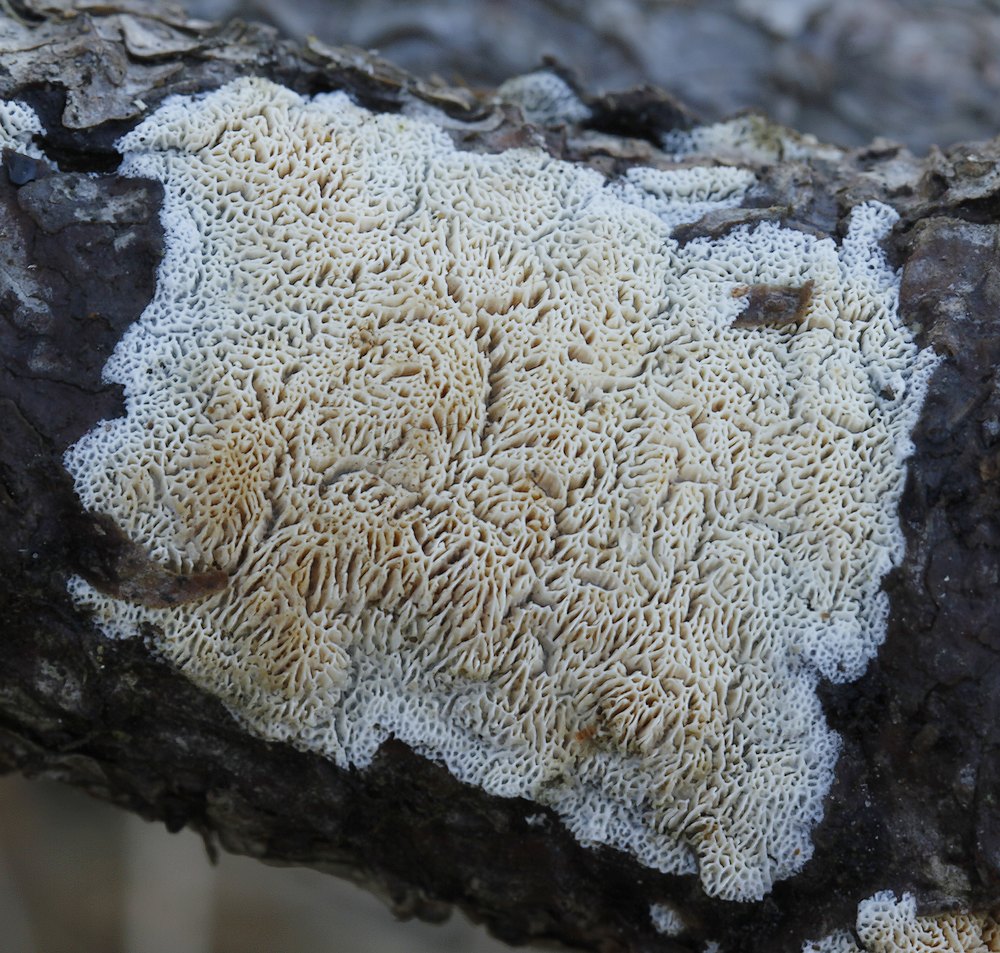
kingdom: Fungi
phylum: Basidiomycota
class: Agaricomycetes
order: Hymenochaetales
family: Schizoporaceae
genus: Xylodon
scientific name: Xylodon subtropicus
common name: labyrint-tandsvamp
